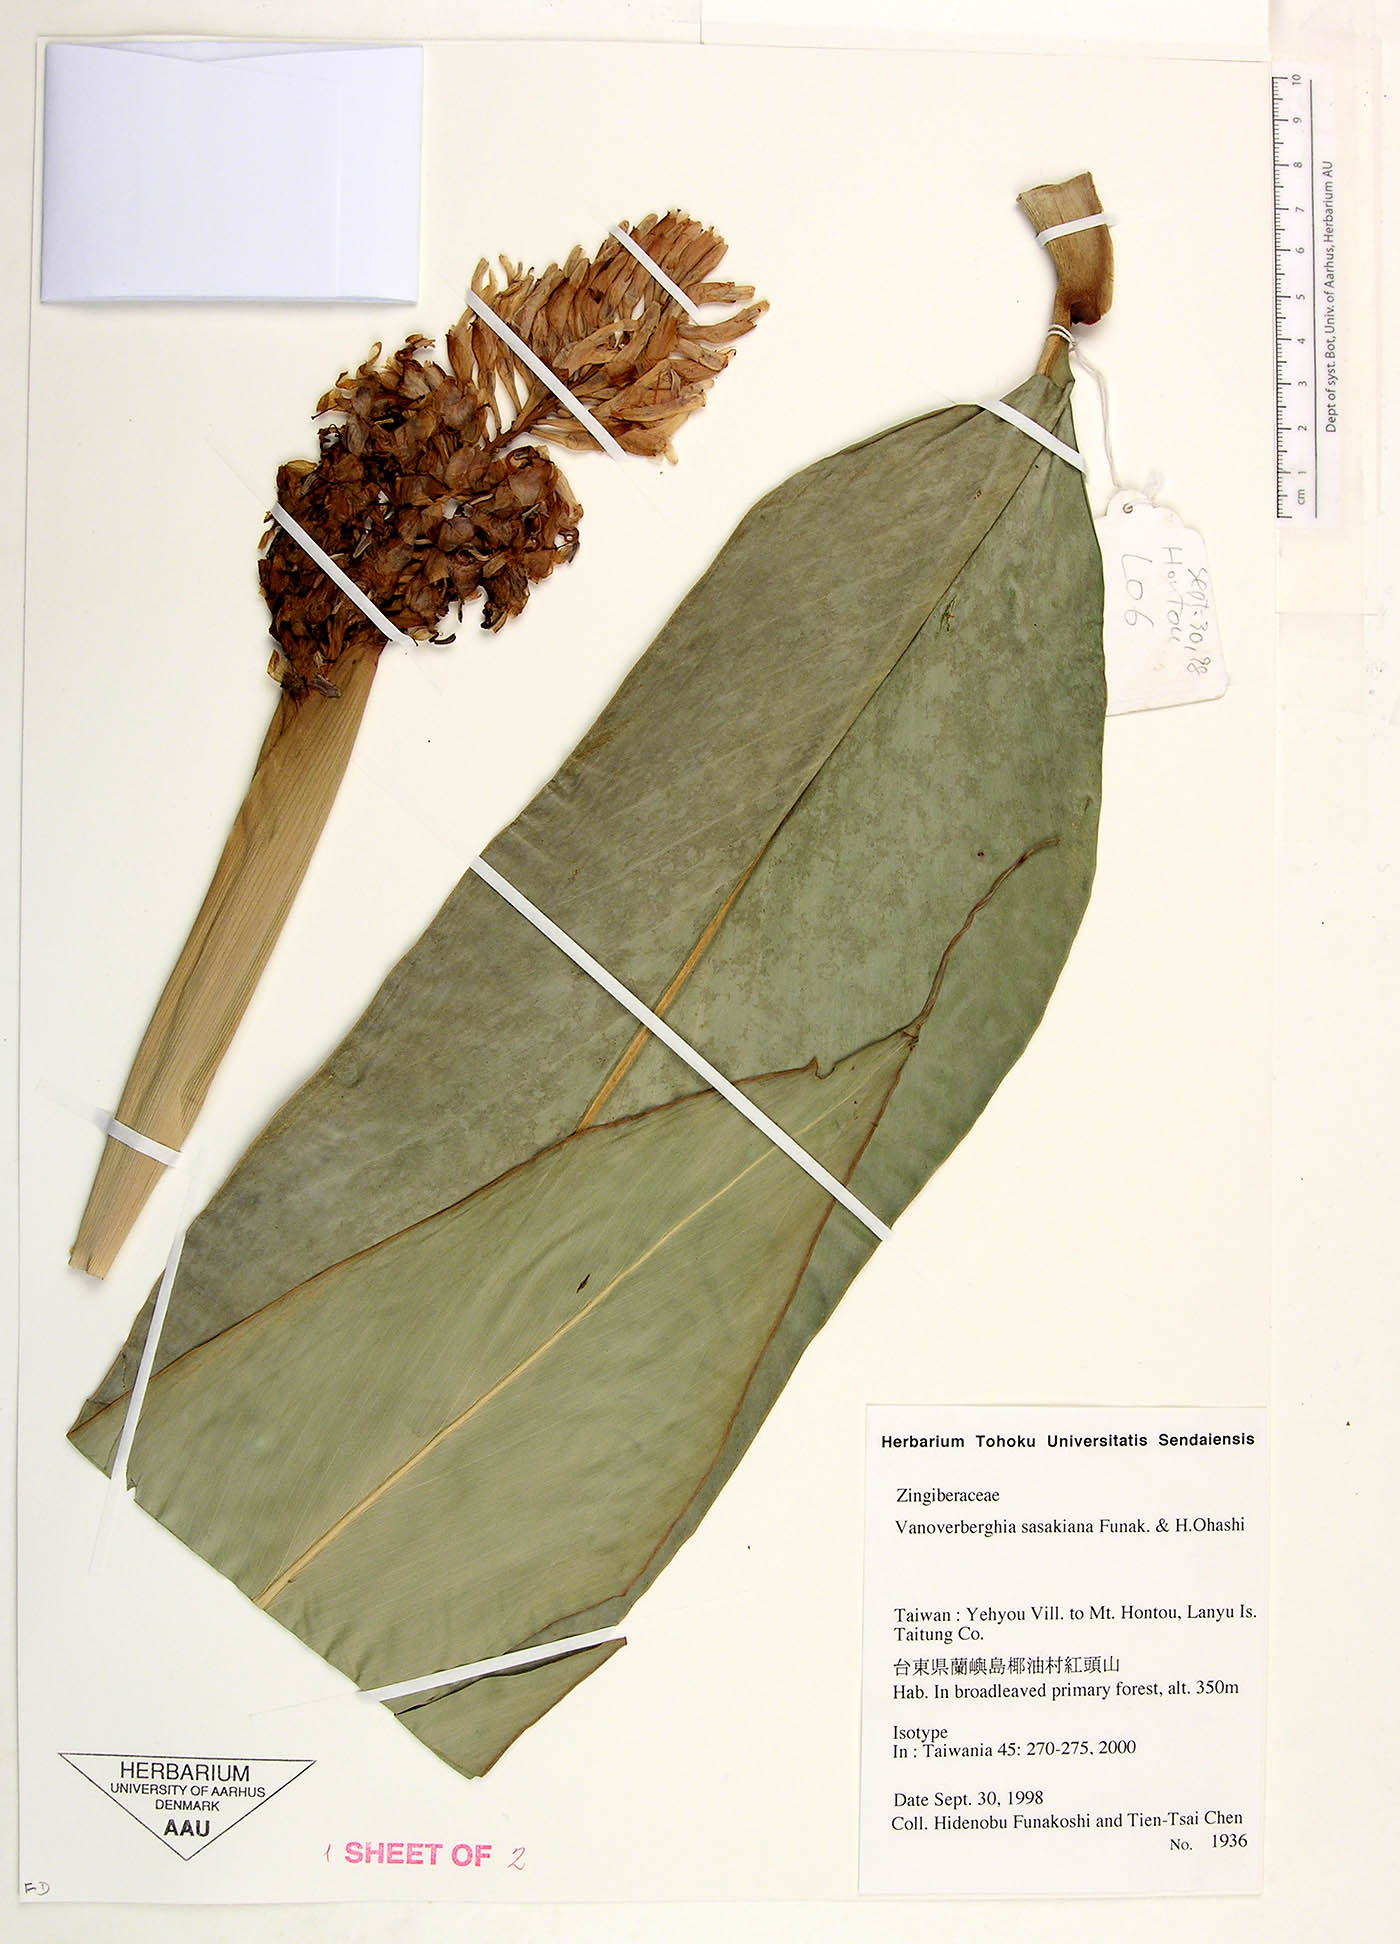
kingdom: Plantae
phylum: Tracheophyta
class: Liliopsida
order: Zingiberales
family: Zingiberaceae
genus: Vanoverberghia
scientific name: Vanoverberghia sasakiana
